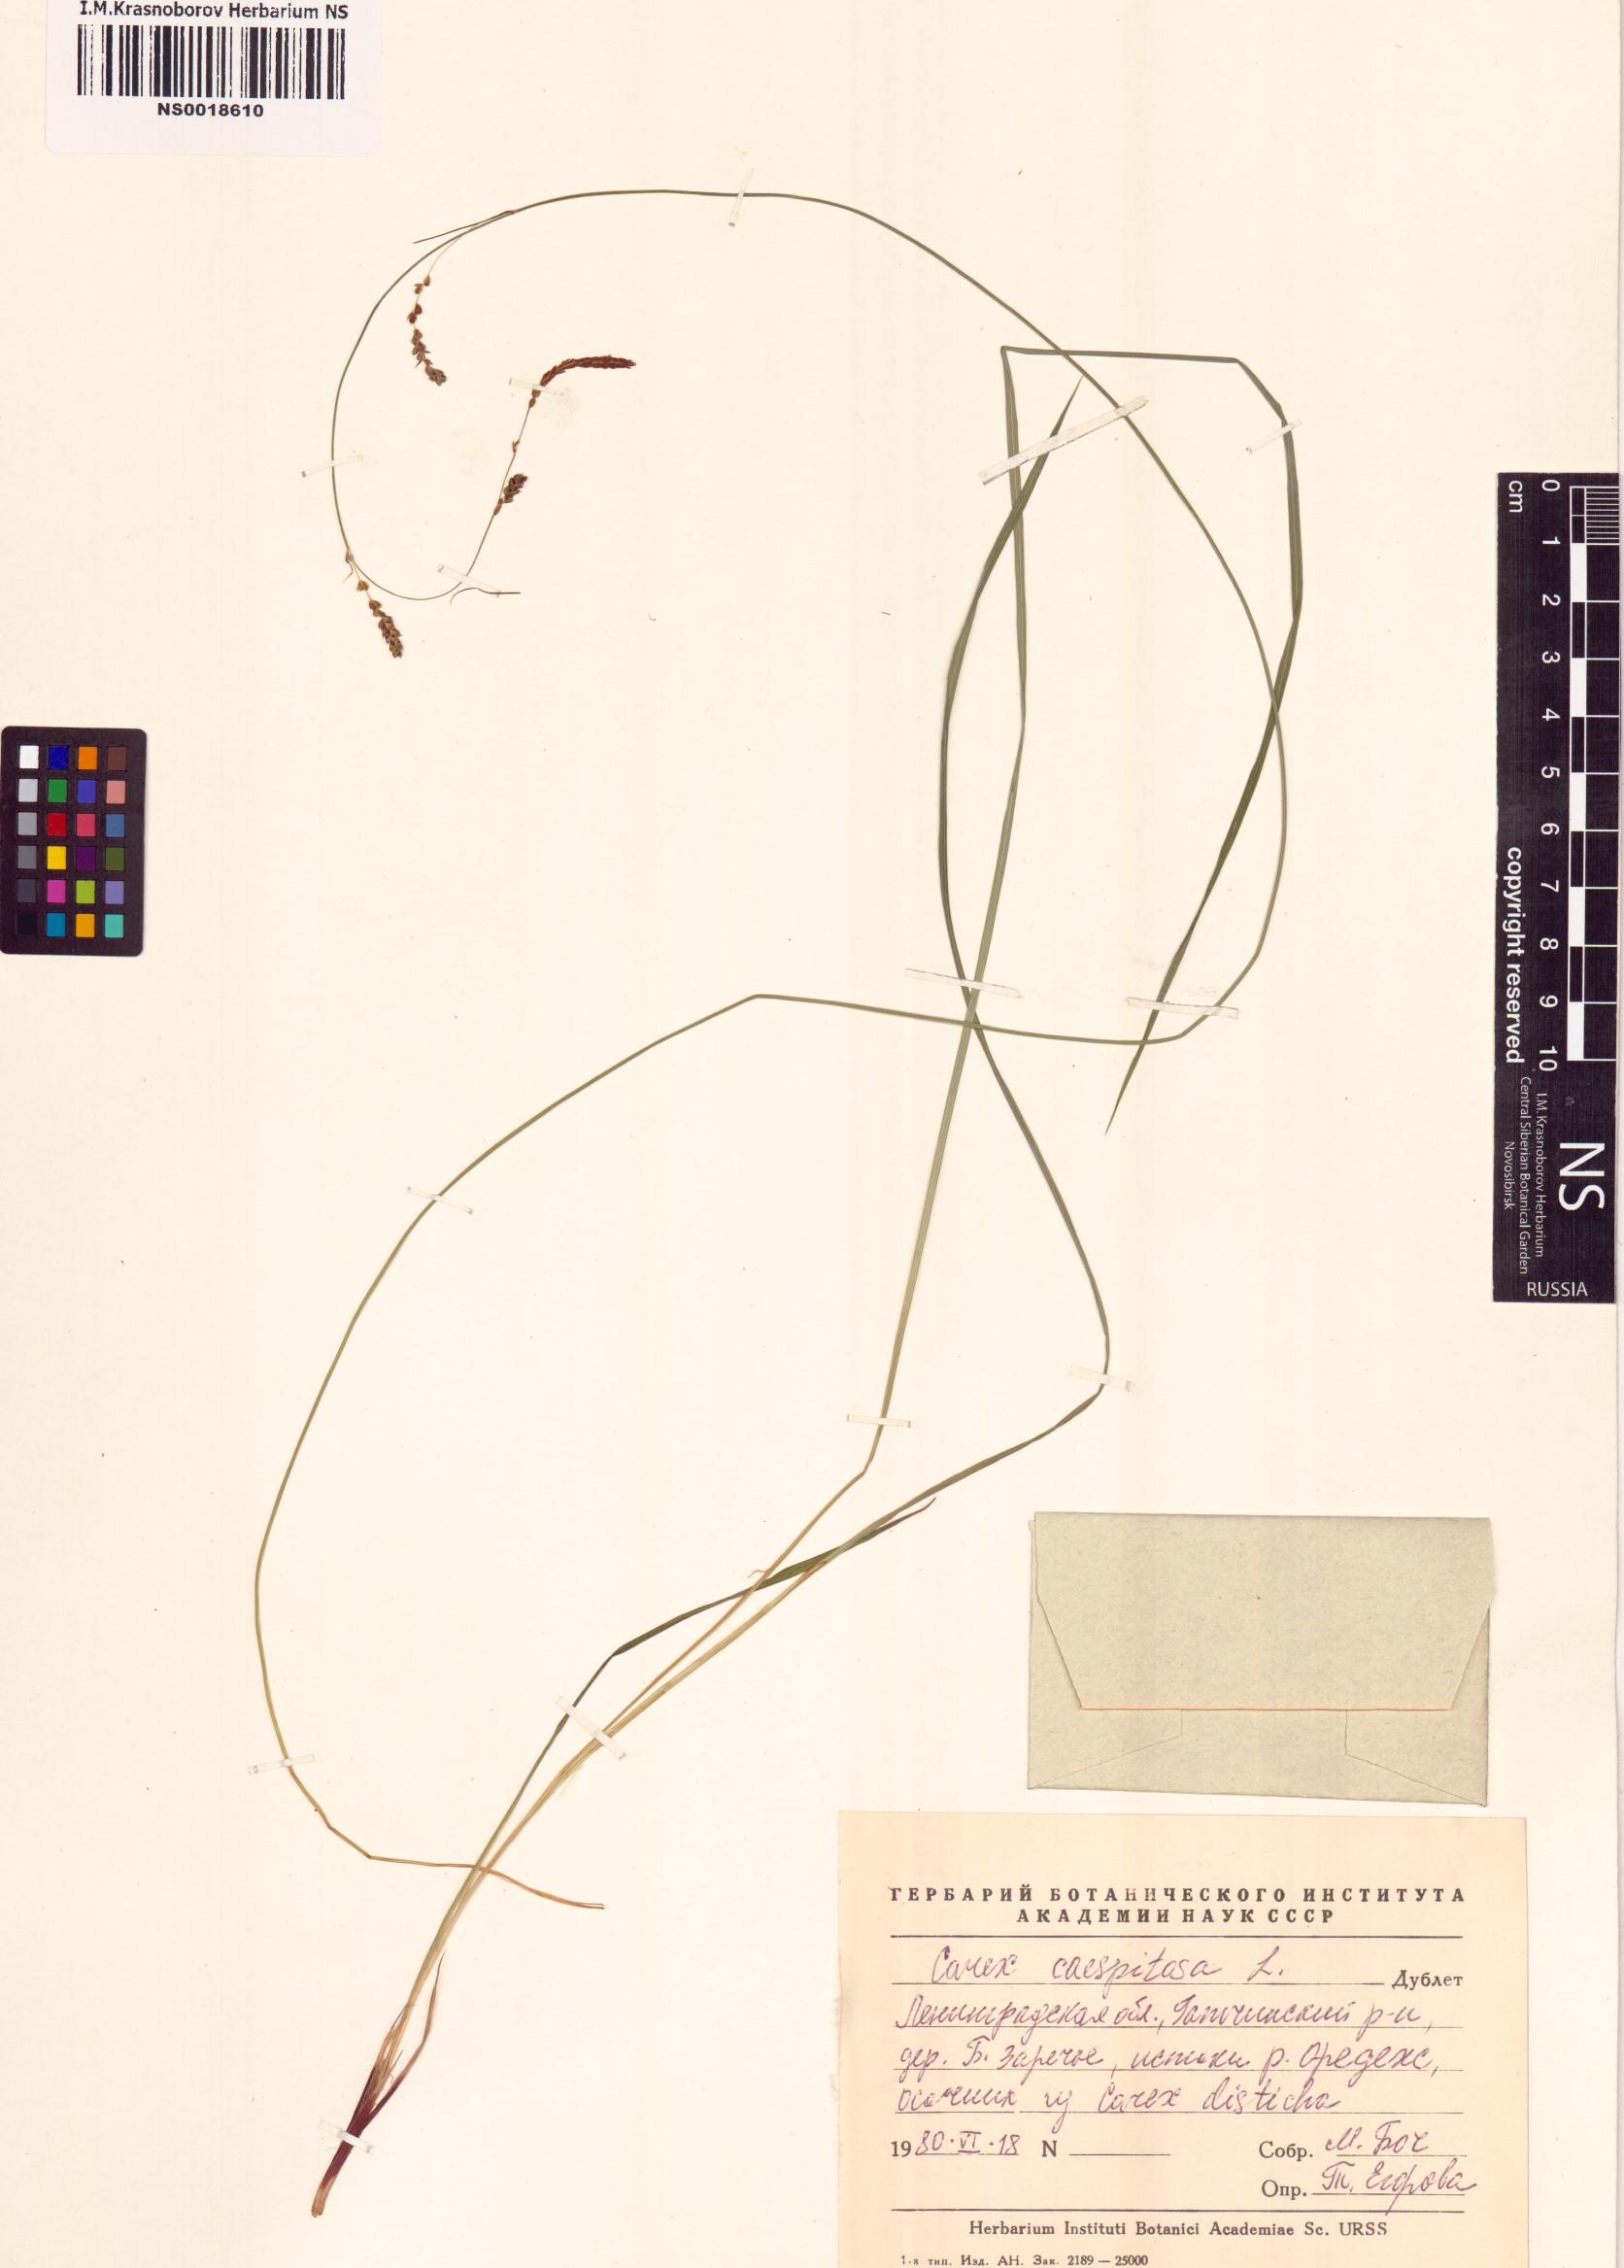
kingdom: Plantae
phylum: Tracheophyta
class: Liliopsida
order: Poales
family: Cyperaceae
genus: Carex
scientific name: Carex cespitosa
